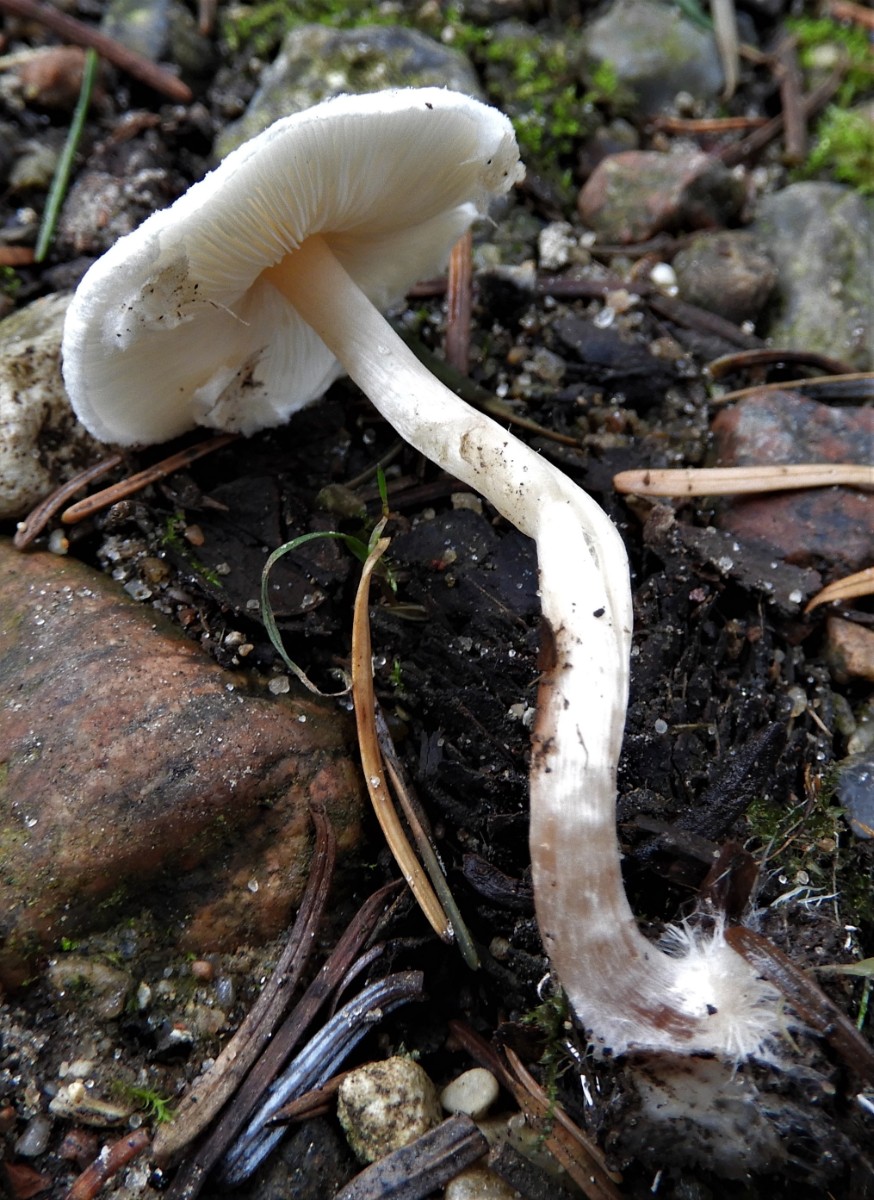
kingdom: Fungi
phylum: Basidiomycota
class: Agaricomycetes
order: Agaricales
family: Agaricaceae
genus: Lepiota
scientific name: Lepiota cristata
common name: stinkende parasolhat
